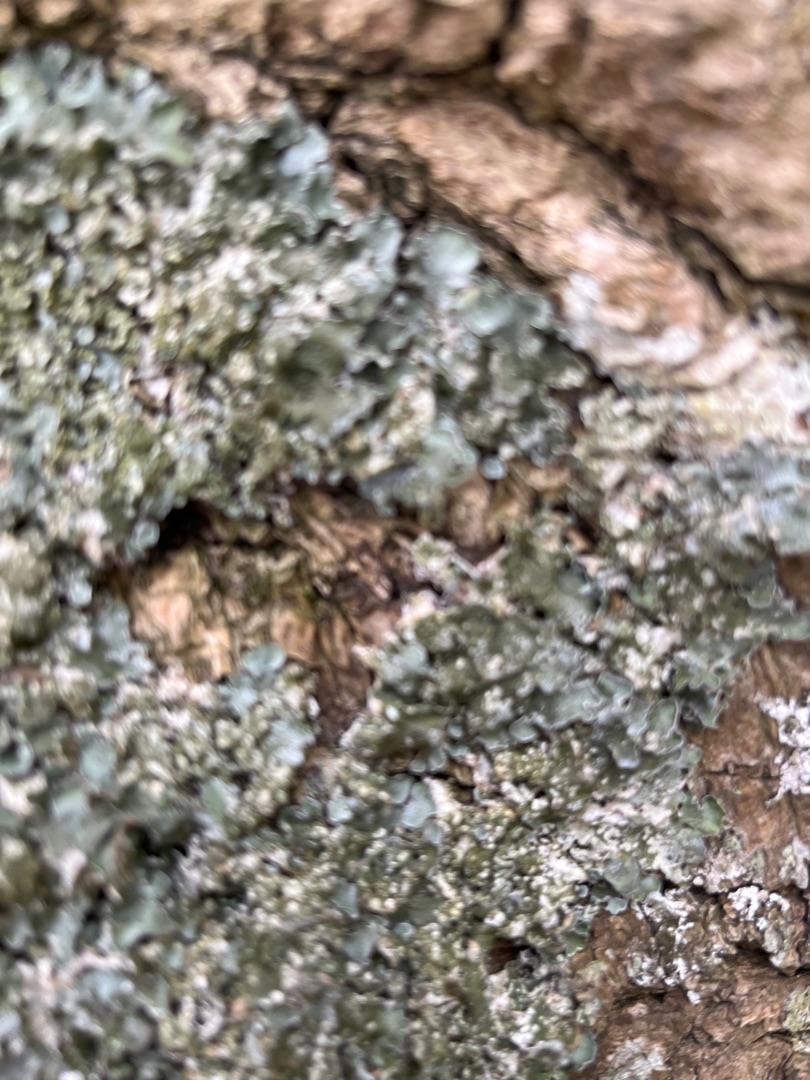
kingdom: Fungi
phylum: Ascomycota
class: Lecanoromycetes
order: Lecanorales
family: Parmeliaceae
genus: Pleurosticta
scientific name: Pleurosticta acetabulum
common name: Stor skållav
